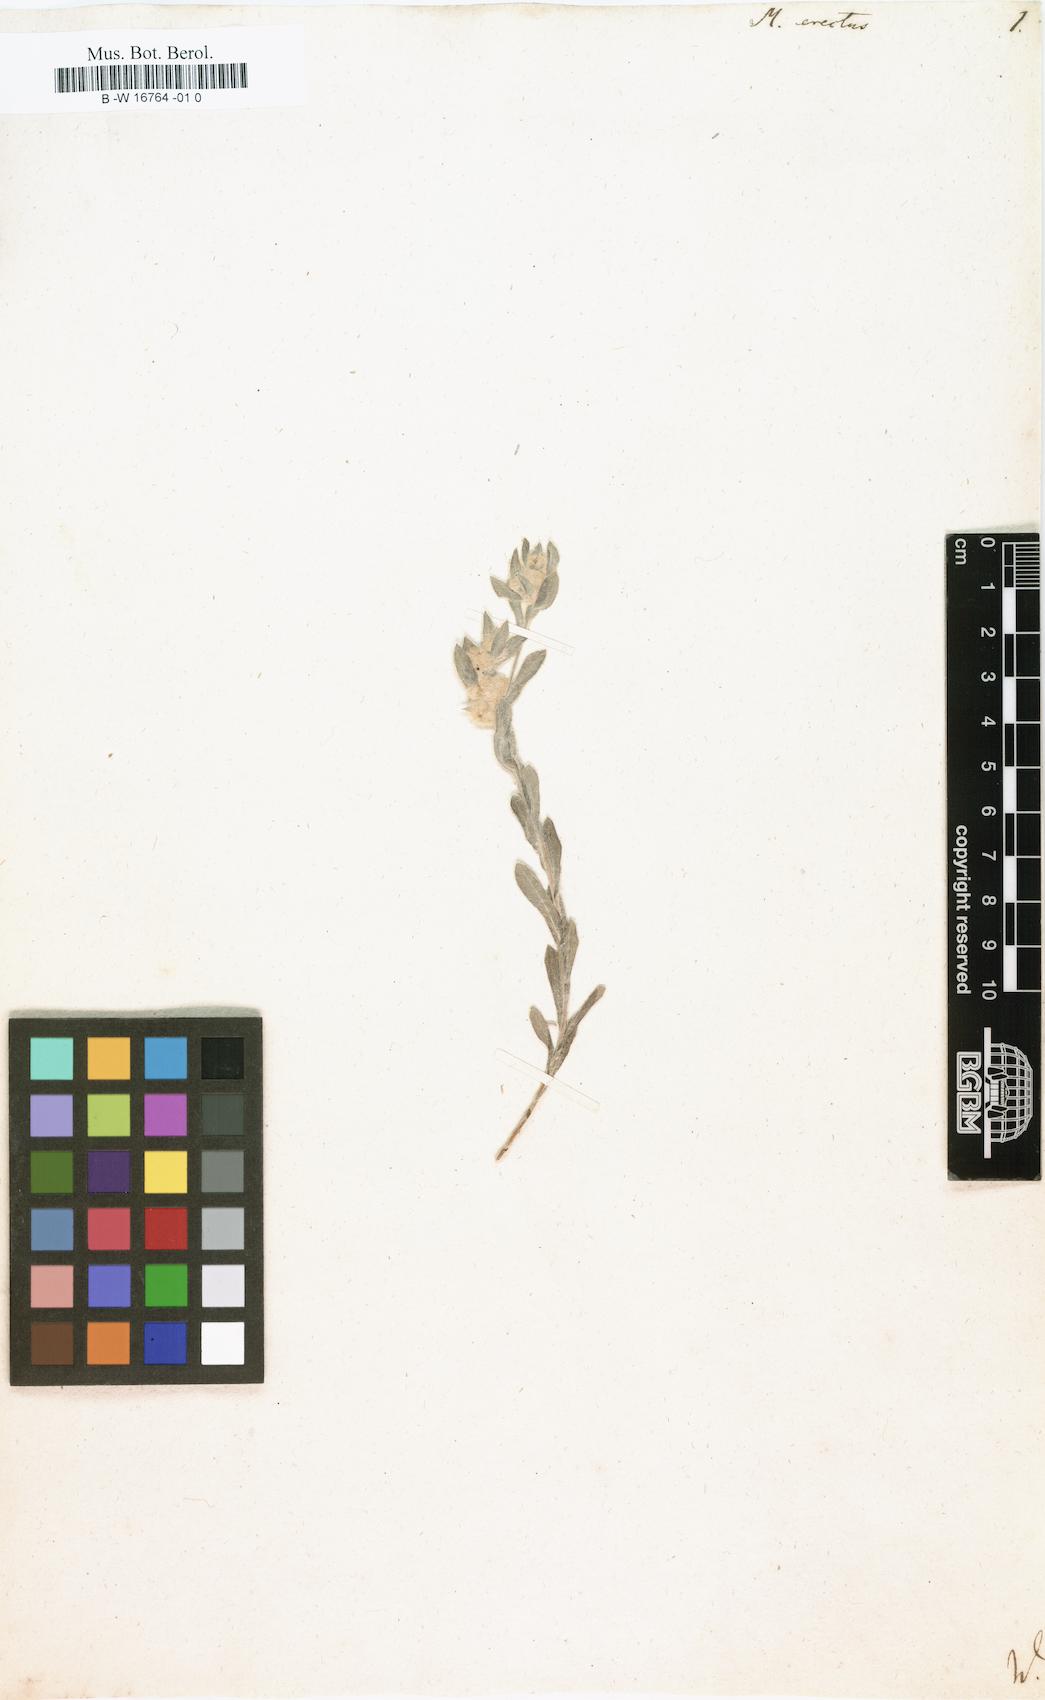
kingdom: Plantae
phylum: Tracheophyta
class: Magnoliopsida
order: Asterales
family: Asteraceae
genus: Bombycilaena
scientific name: Bombycilaena
